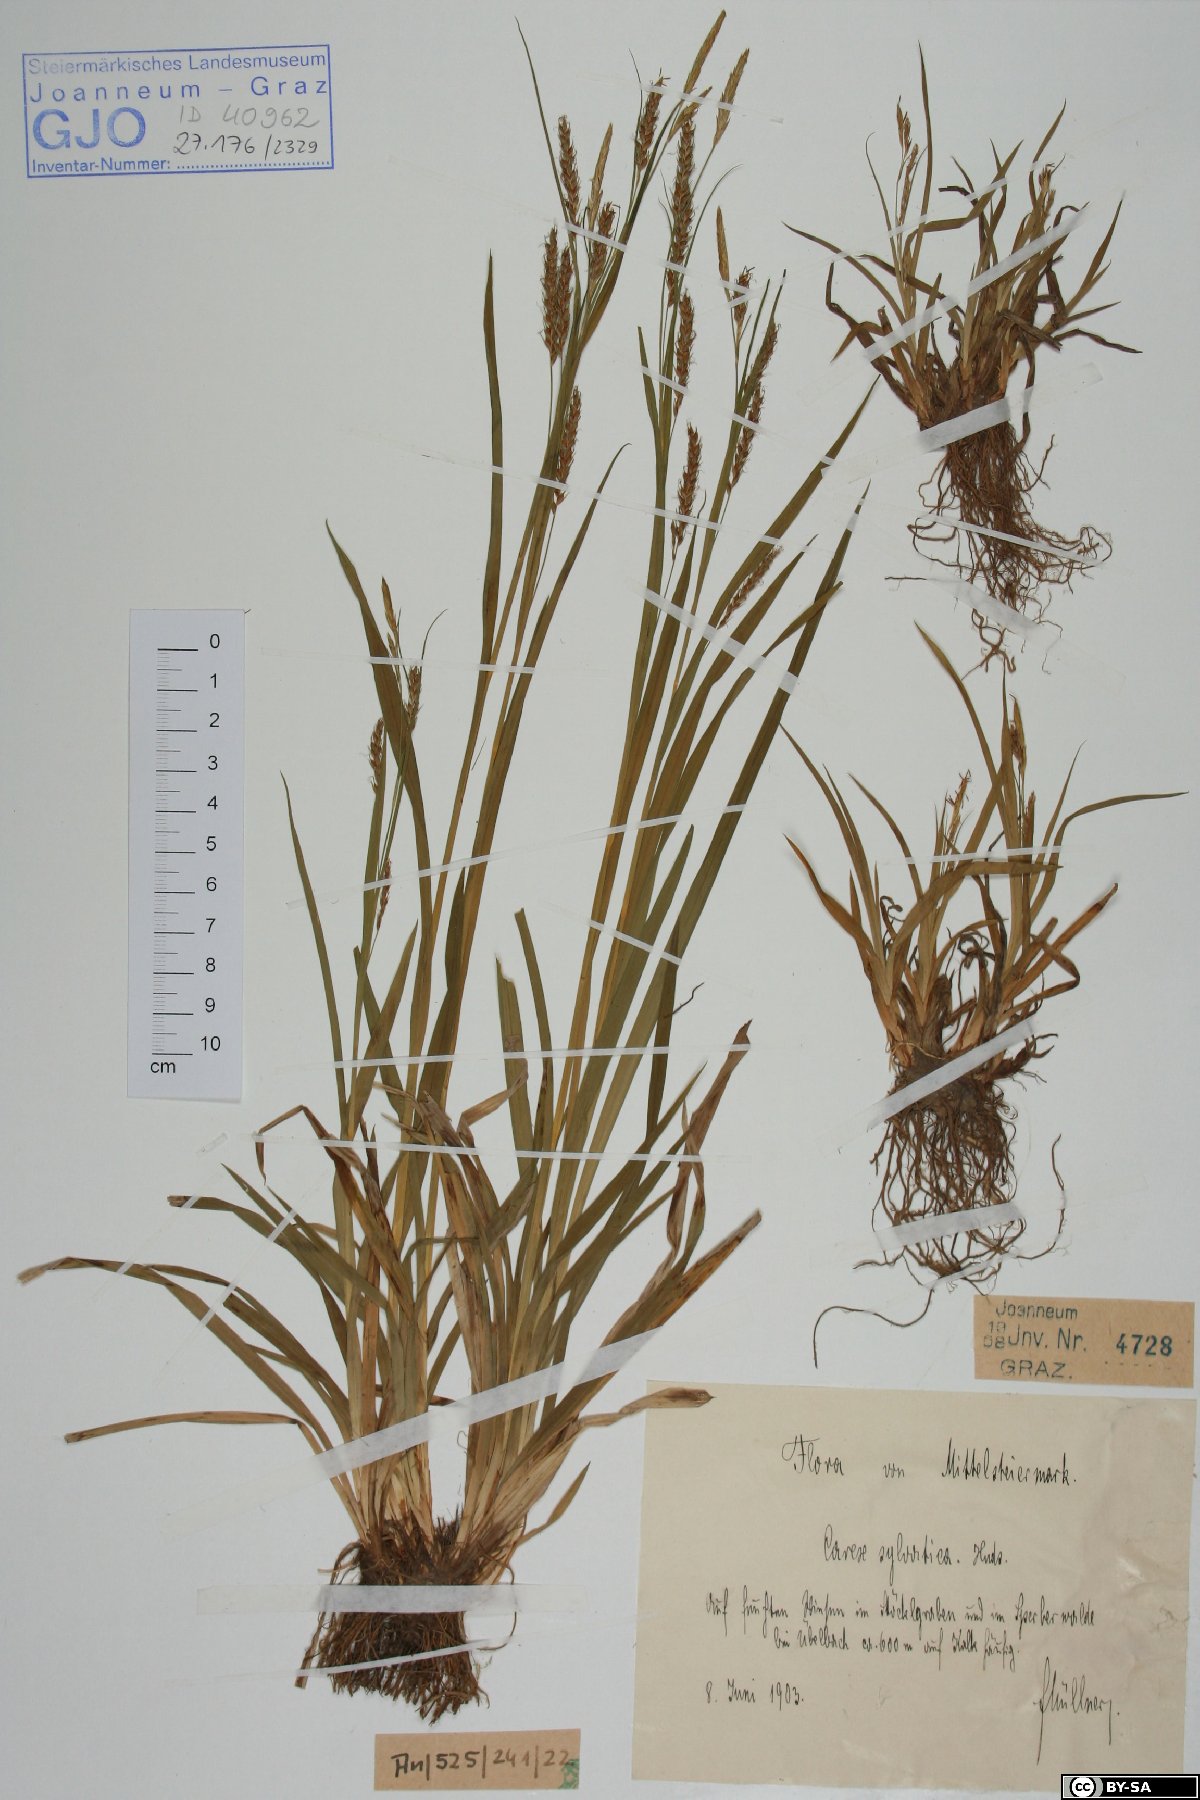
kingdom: Plantae
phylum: Tracheophyta
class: Liliopsida
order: Poales
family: Cyperaceae
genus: Carex
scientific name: Carex sylvatica
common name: Wood-sedge
